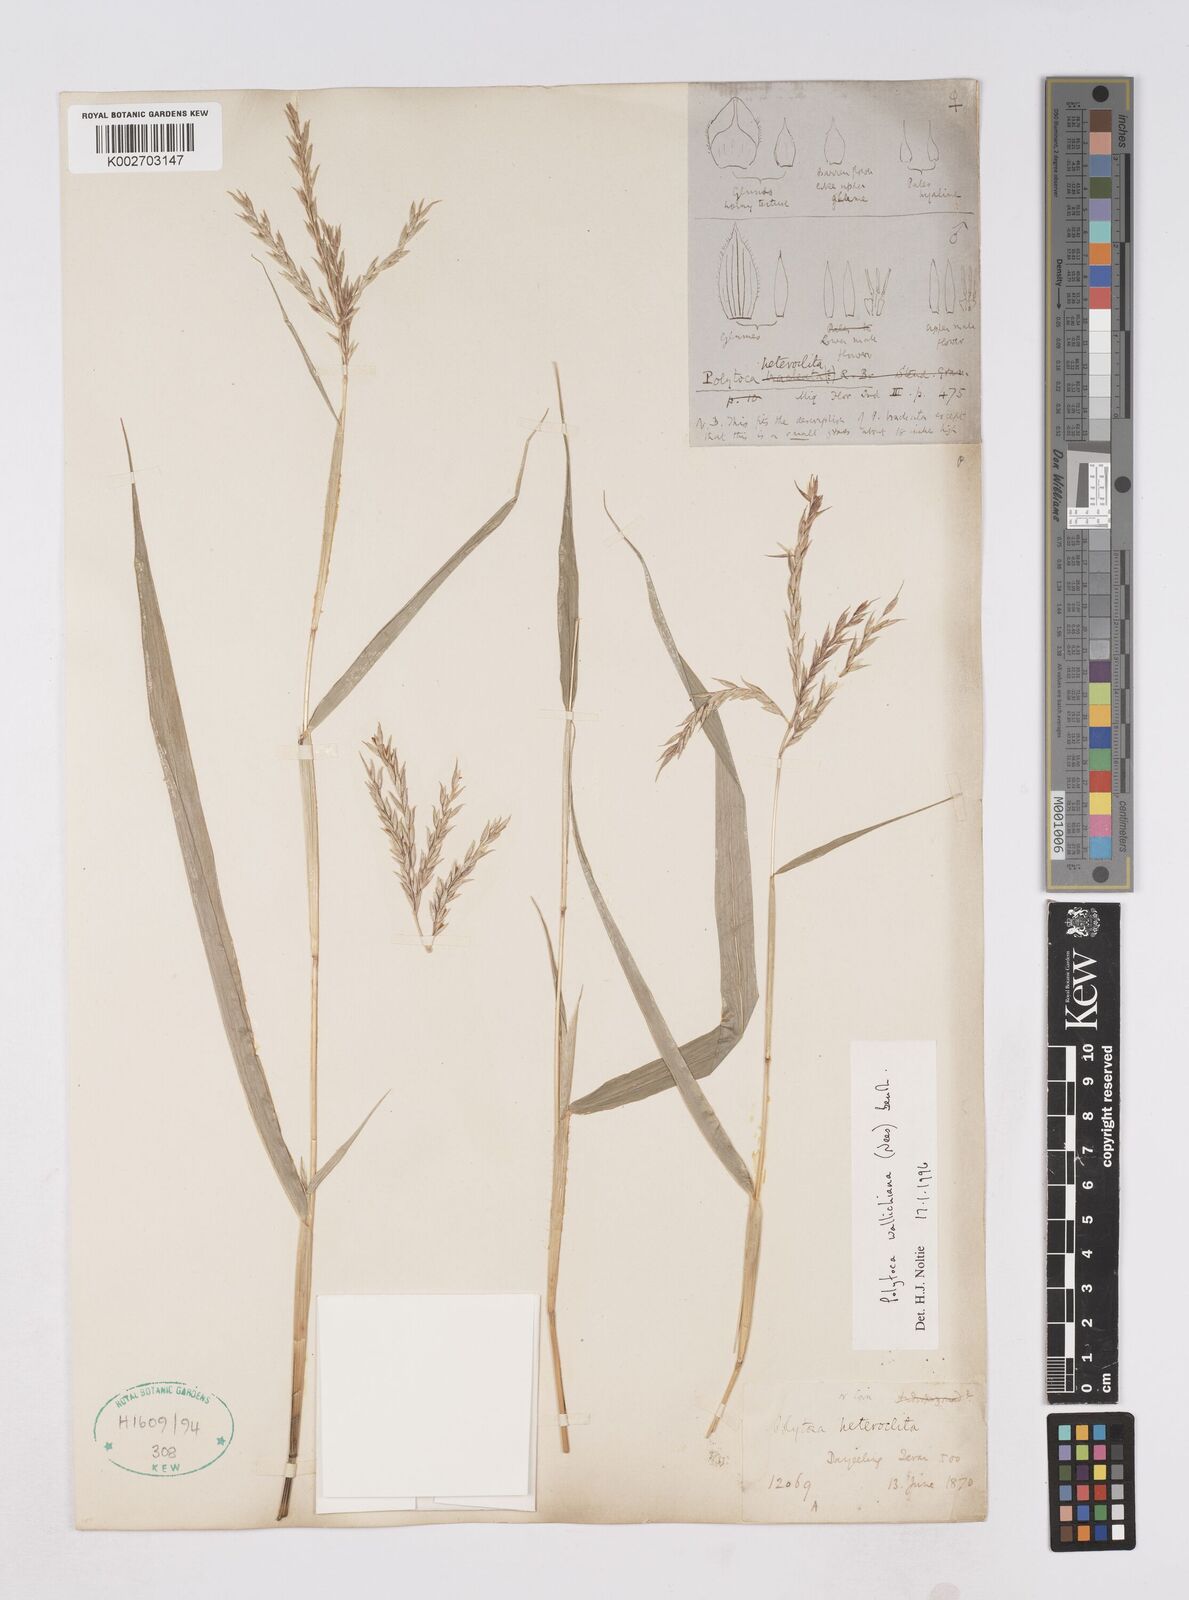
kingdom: Plantae
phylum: Tracheophyta
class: Liliopsida
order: Poales
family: Poaceae
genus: Polytoca
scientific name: Polytoca wallichiana
